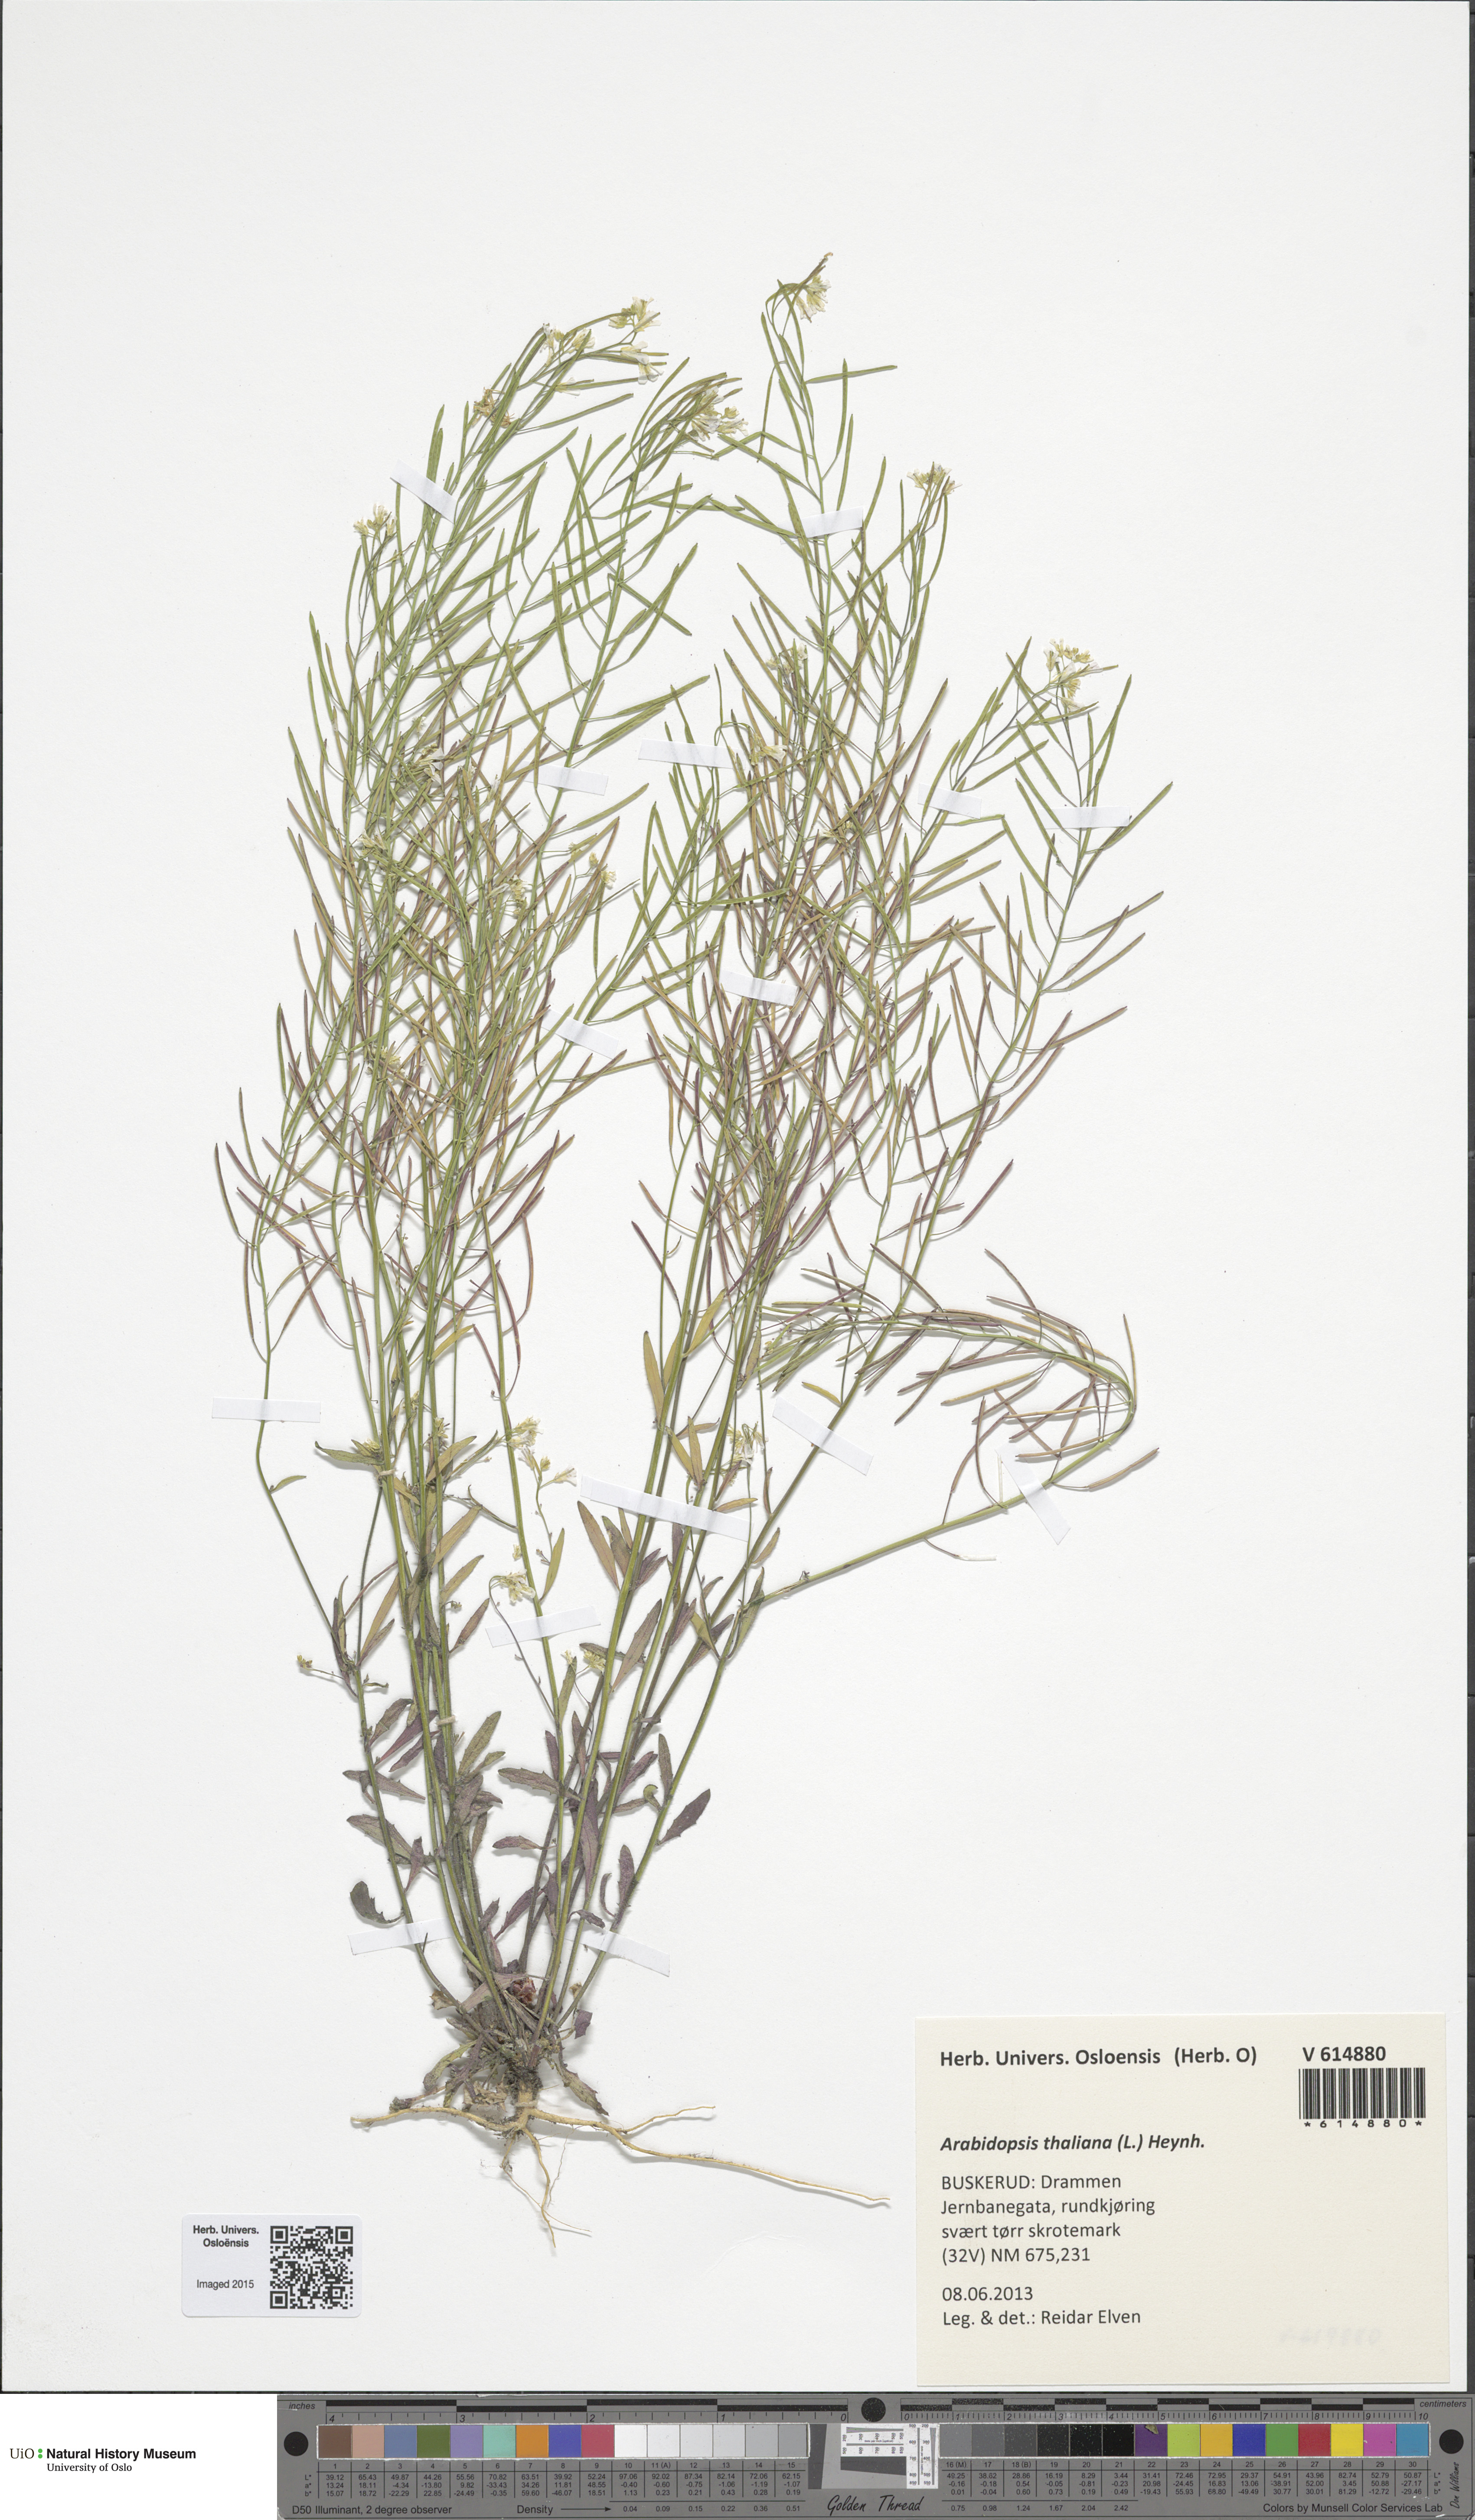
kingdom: Plantae
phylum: Tracheophyta
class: Magnoliopsida
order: Brassicales
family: Brassicaceae
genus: Arabidopsis
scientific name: Arabidopsis thaliana
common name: Thale cress
